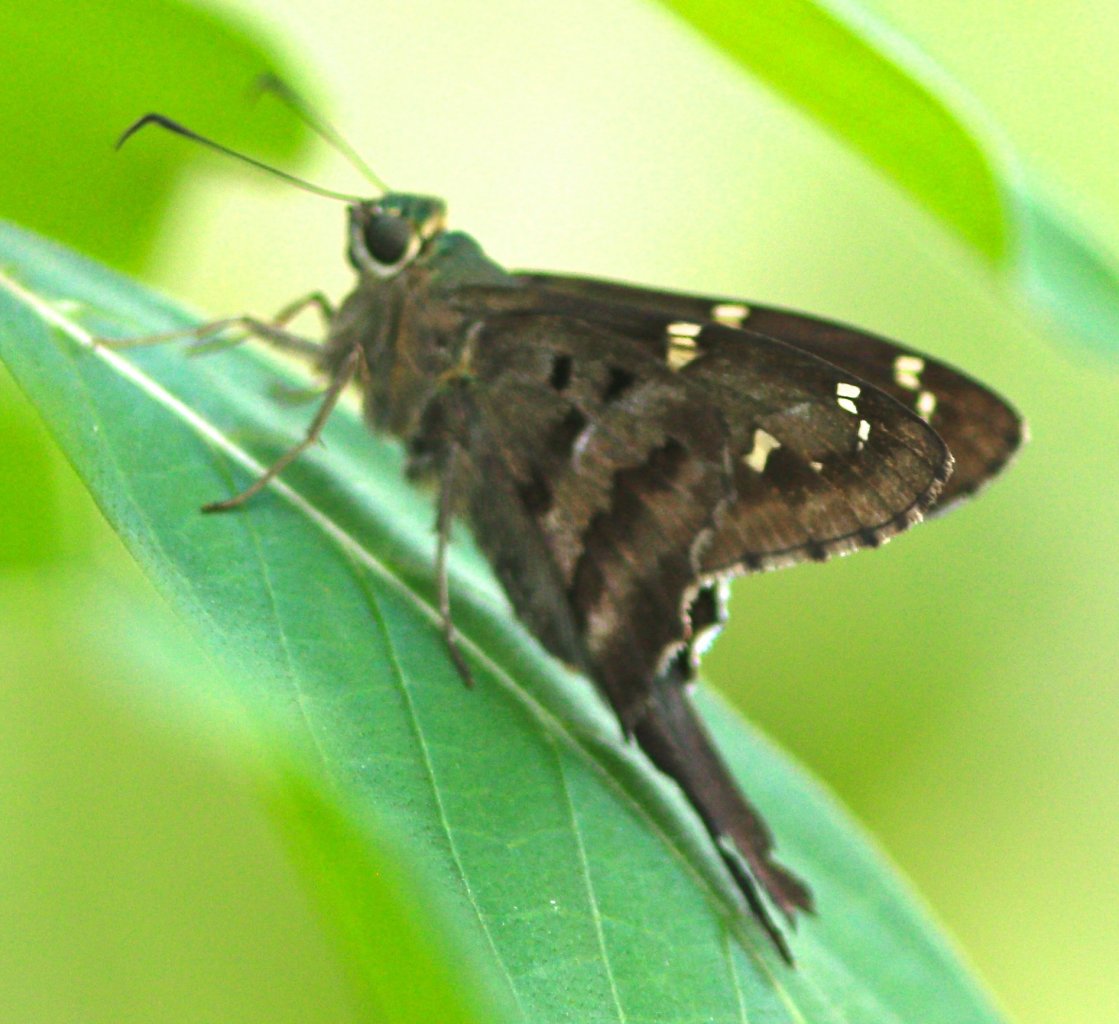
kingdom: Animalia
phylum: Arthropoda
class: Insecta
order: Lepidoptera
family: Hesperiidae
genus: Urbanus
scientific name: Urbanus proteus
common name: Long-tailed Skipper
